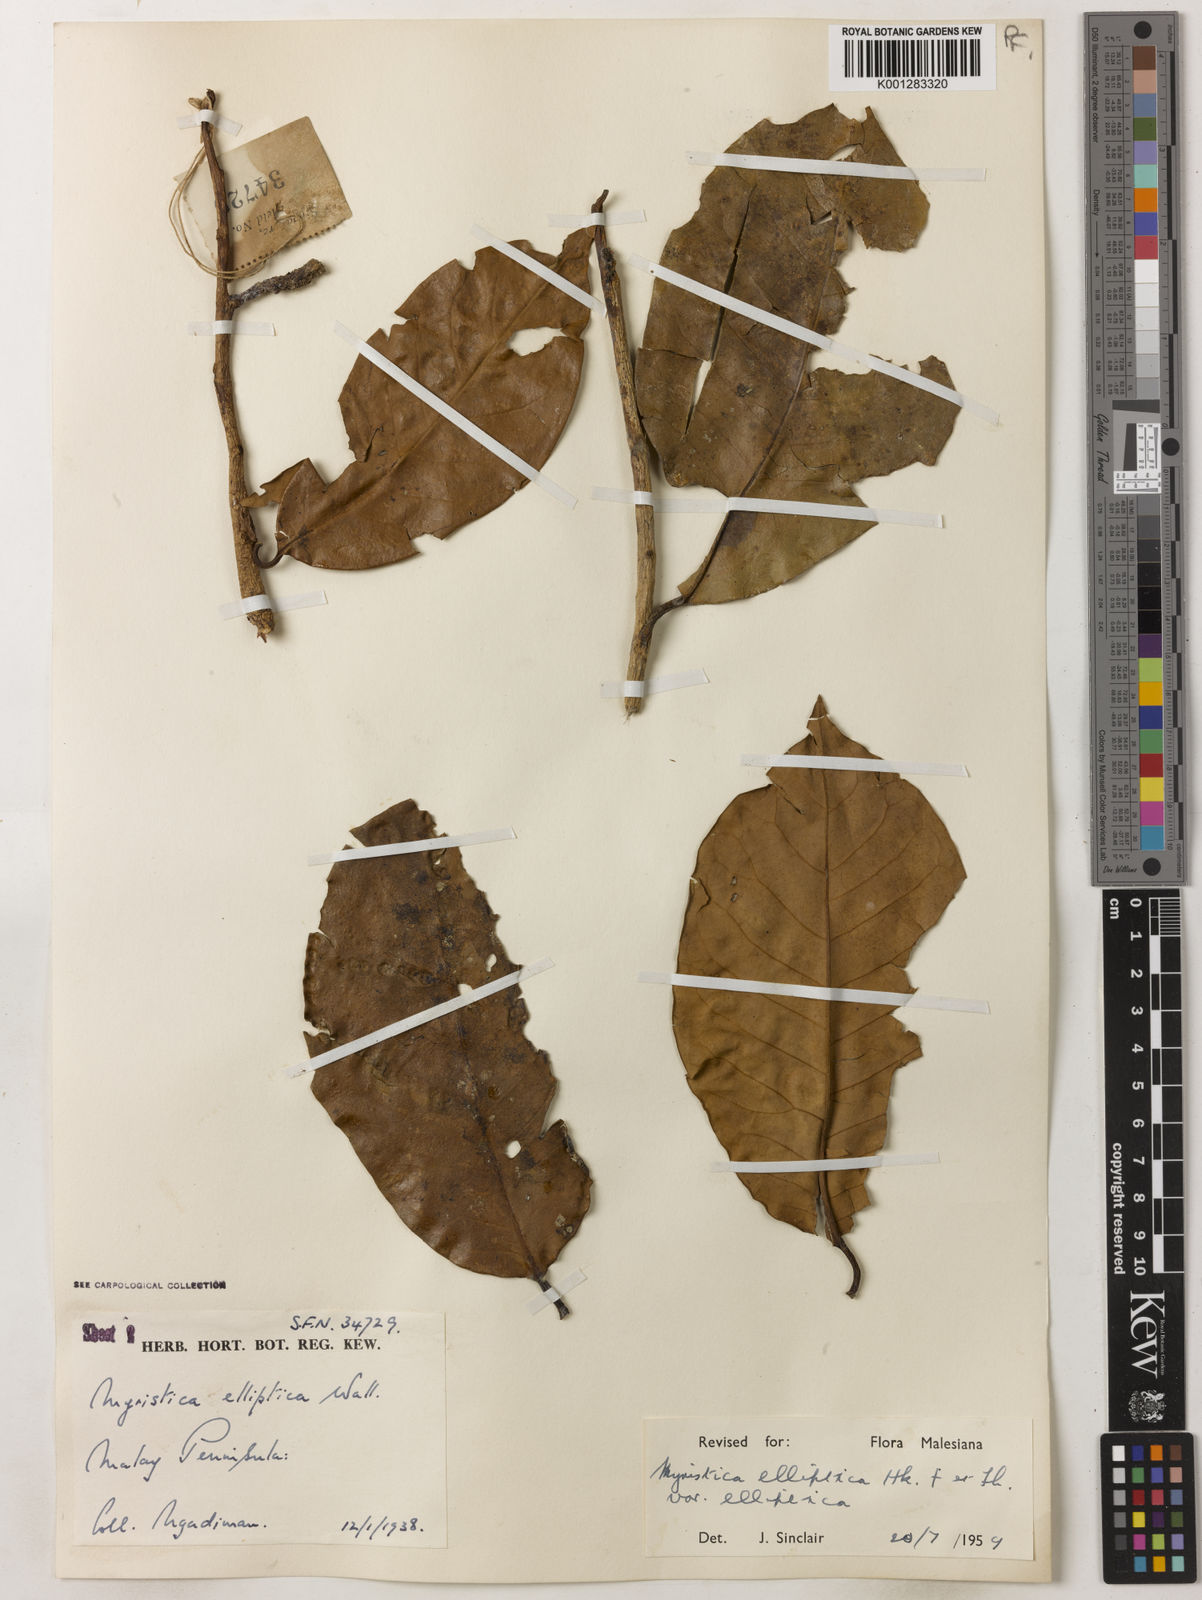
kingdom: Plantae
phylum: Tracheophyta
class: Magnoliopsida
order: Magnoliales
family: Myristicaceae
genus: Myristica
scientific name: Myristica elliptica
